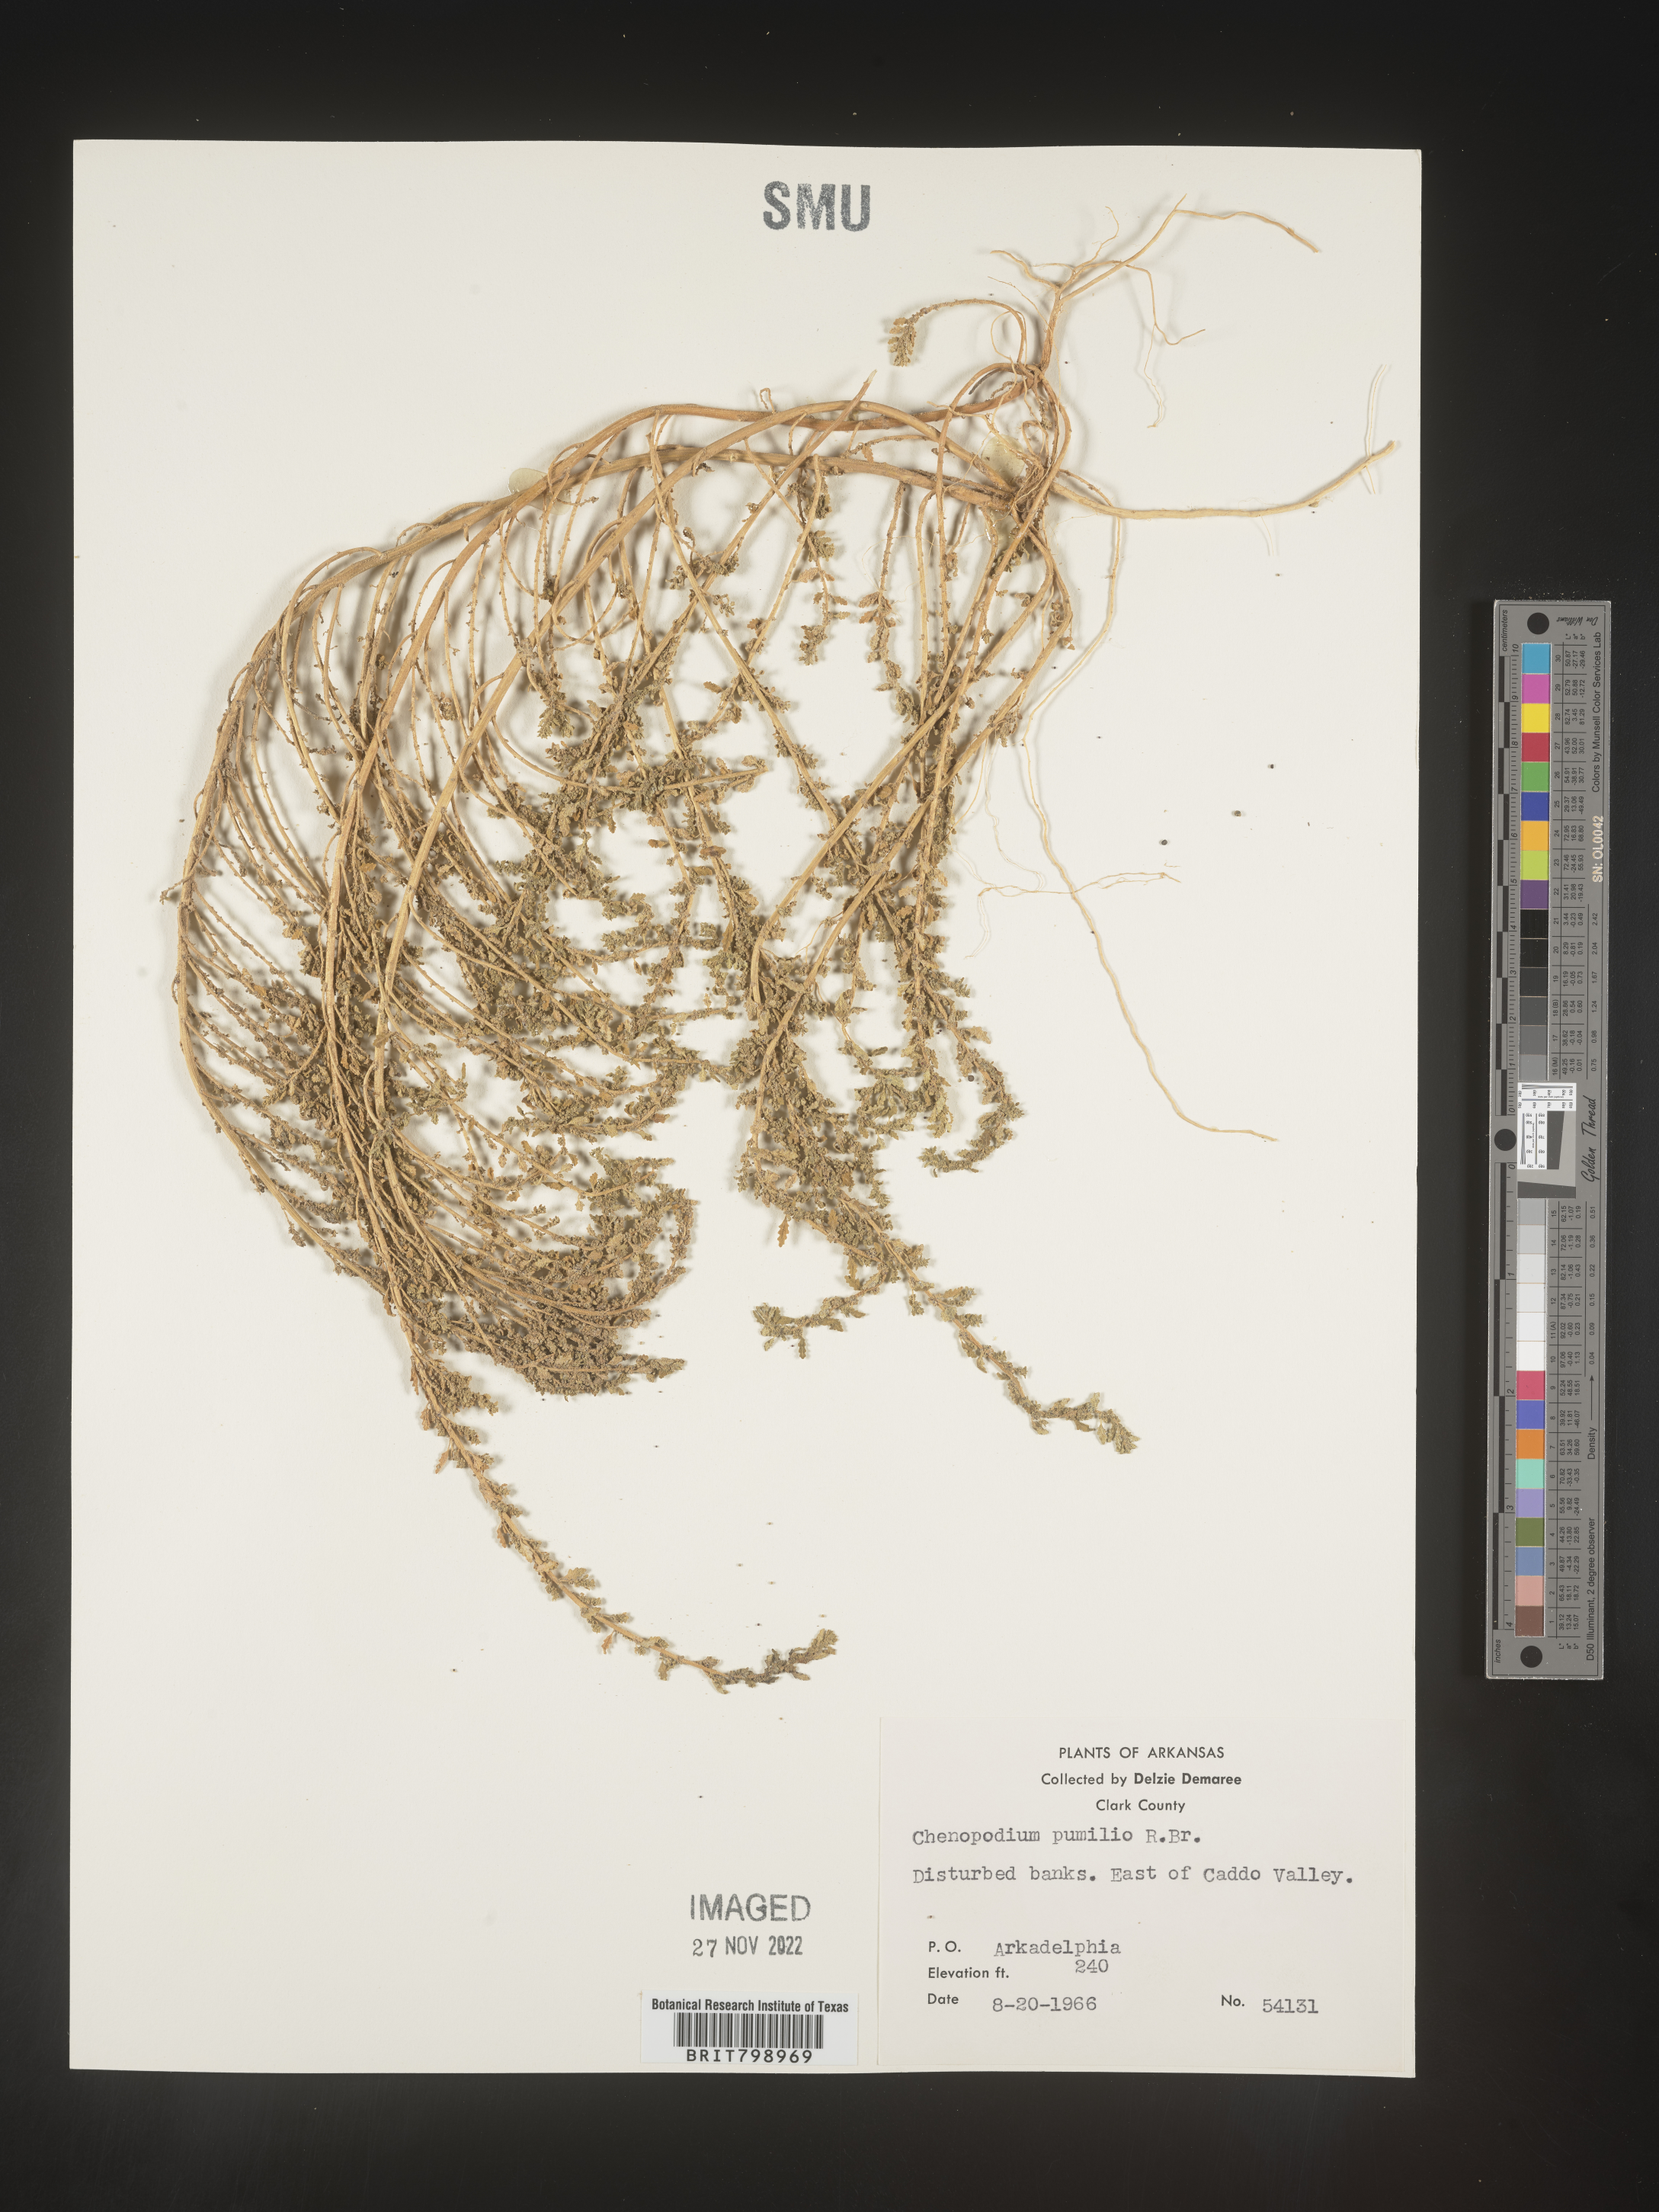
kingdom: Plantae
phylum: Tracheophyta
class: Magnoliopsida
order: Caryophyllales
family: Amaranthaceae
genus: Dysphania
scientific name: Dysphania pumilio
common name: Clammy goosefoot
